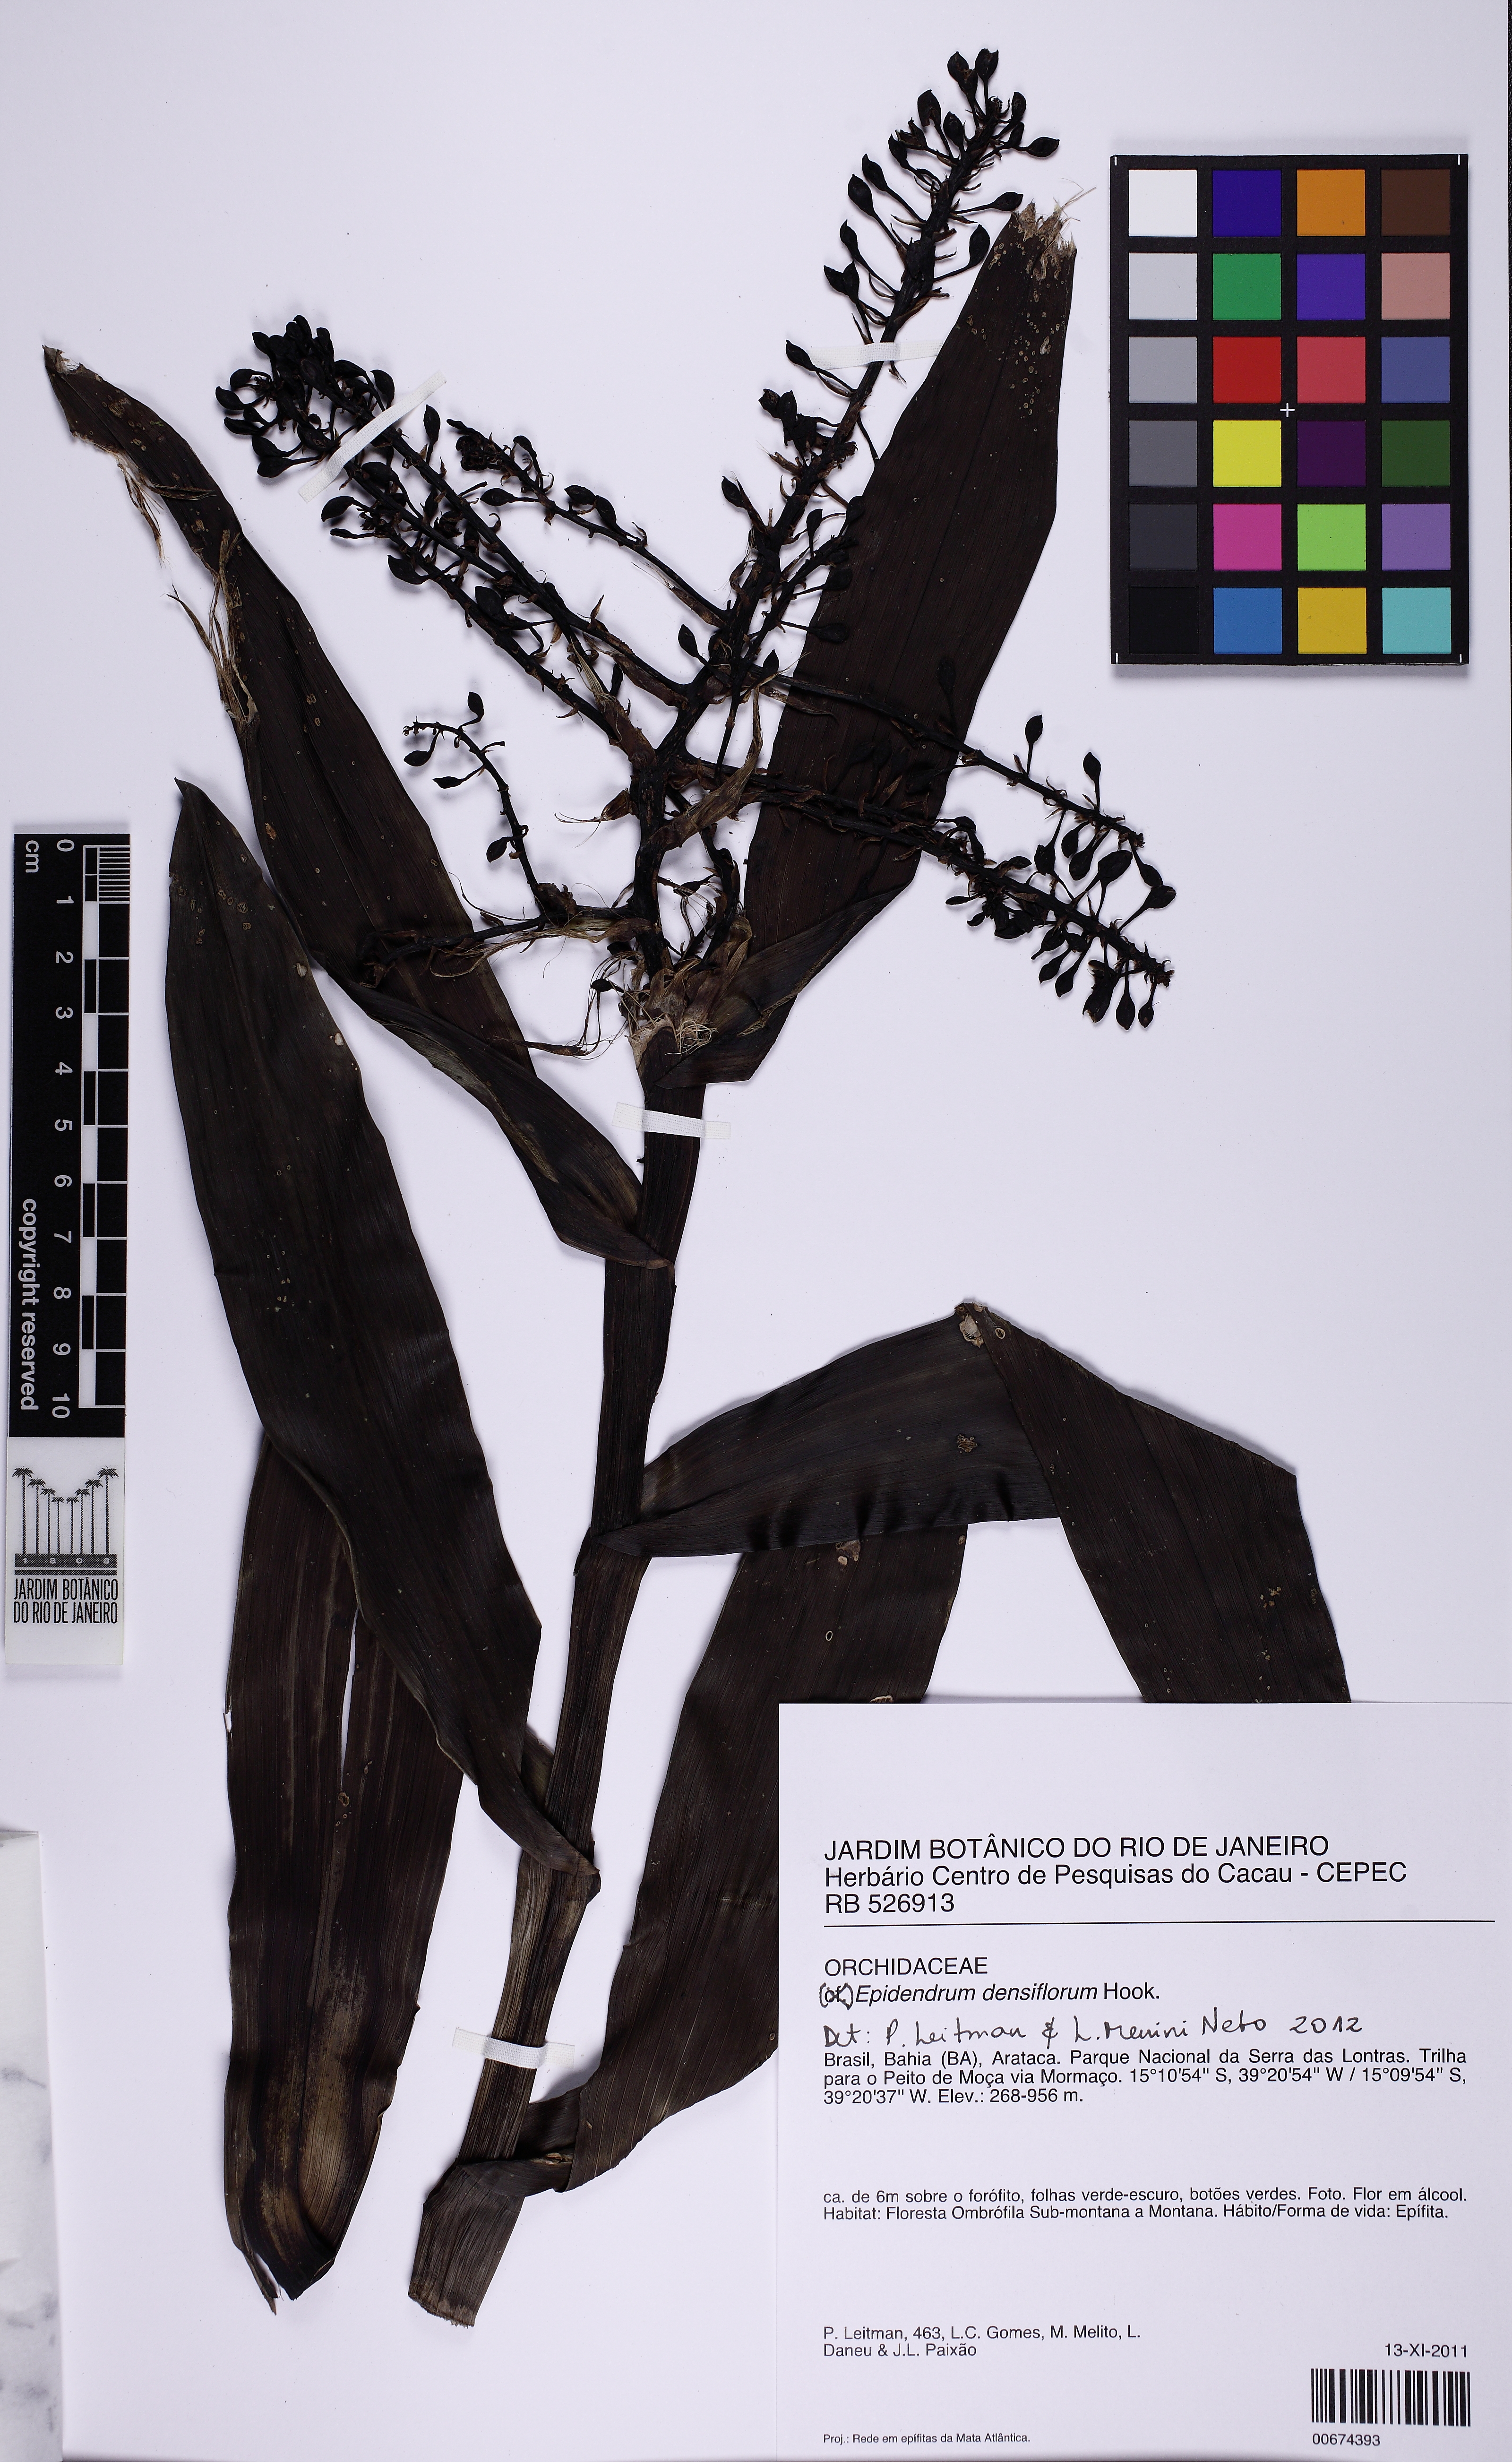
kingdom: Plantae
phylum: Tracheophyta
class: Liliopsida
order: Asparagales
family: Orchidaceae
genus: Epidendrum
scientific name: Epidendrum densiflorum
